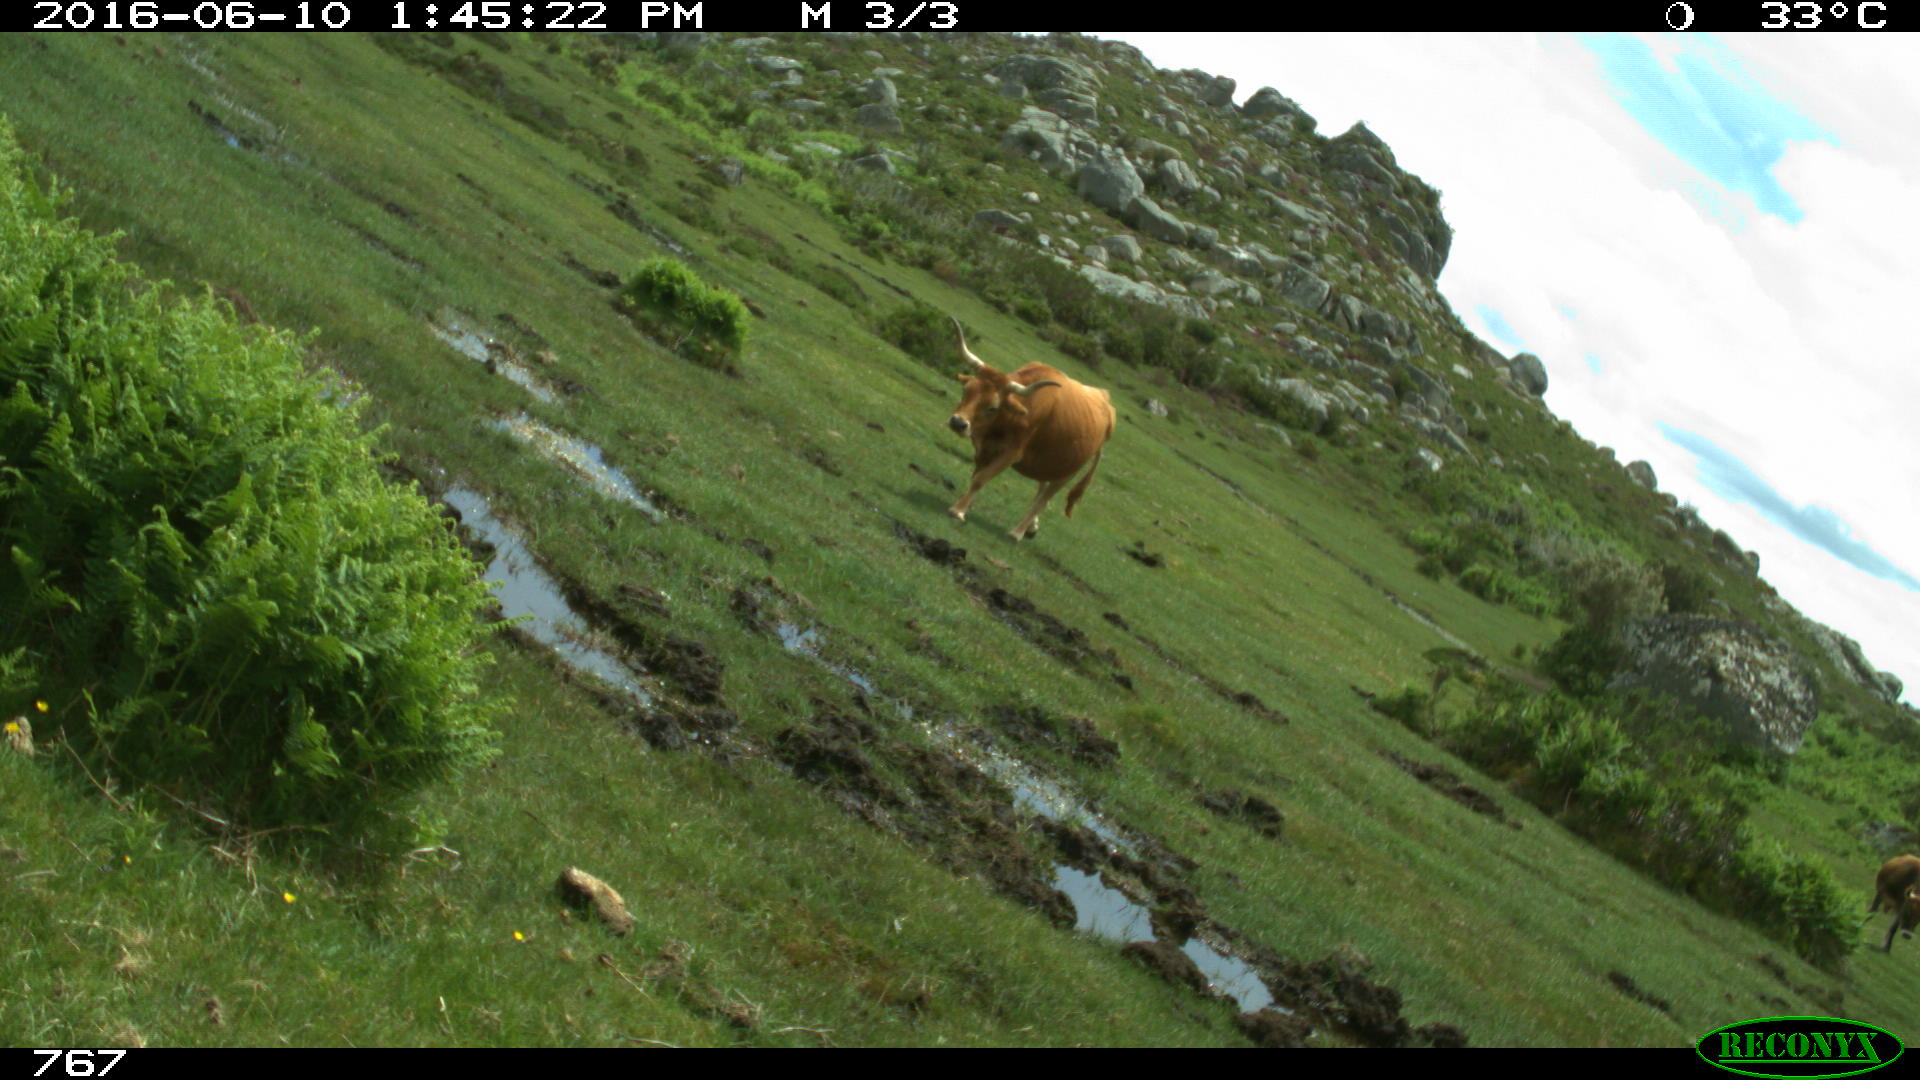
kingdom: Animalia
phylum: Chordata
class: Mammalia
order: Artiodactyla
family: Bovidae
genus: Bos
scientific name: Bos taurus
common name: Domesticated cattle
